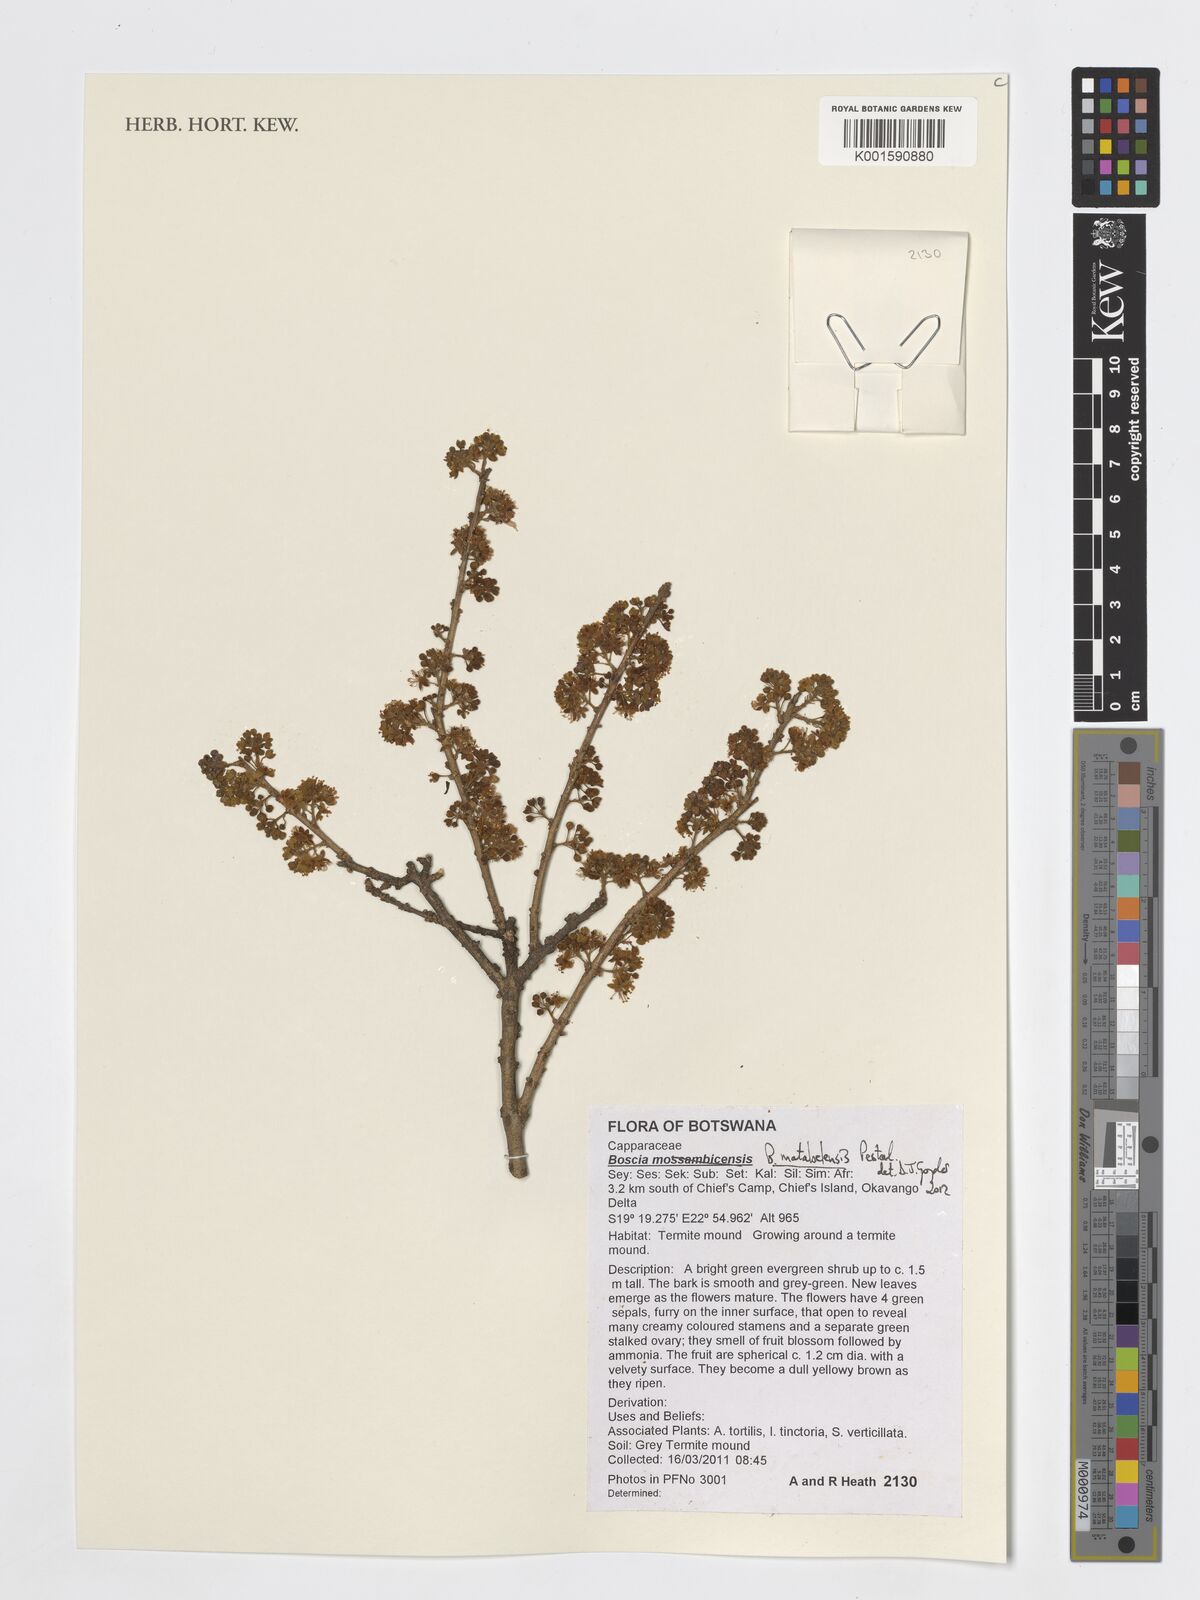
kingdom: Plantae
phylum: Tracheophyta
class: Magnoliopsida
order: Brassicales
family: Capparaceae
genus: Boscia
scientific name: Boscia matabelensis
